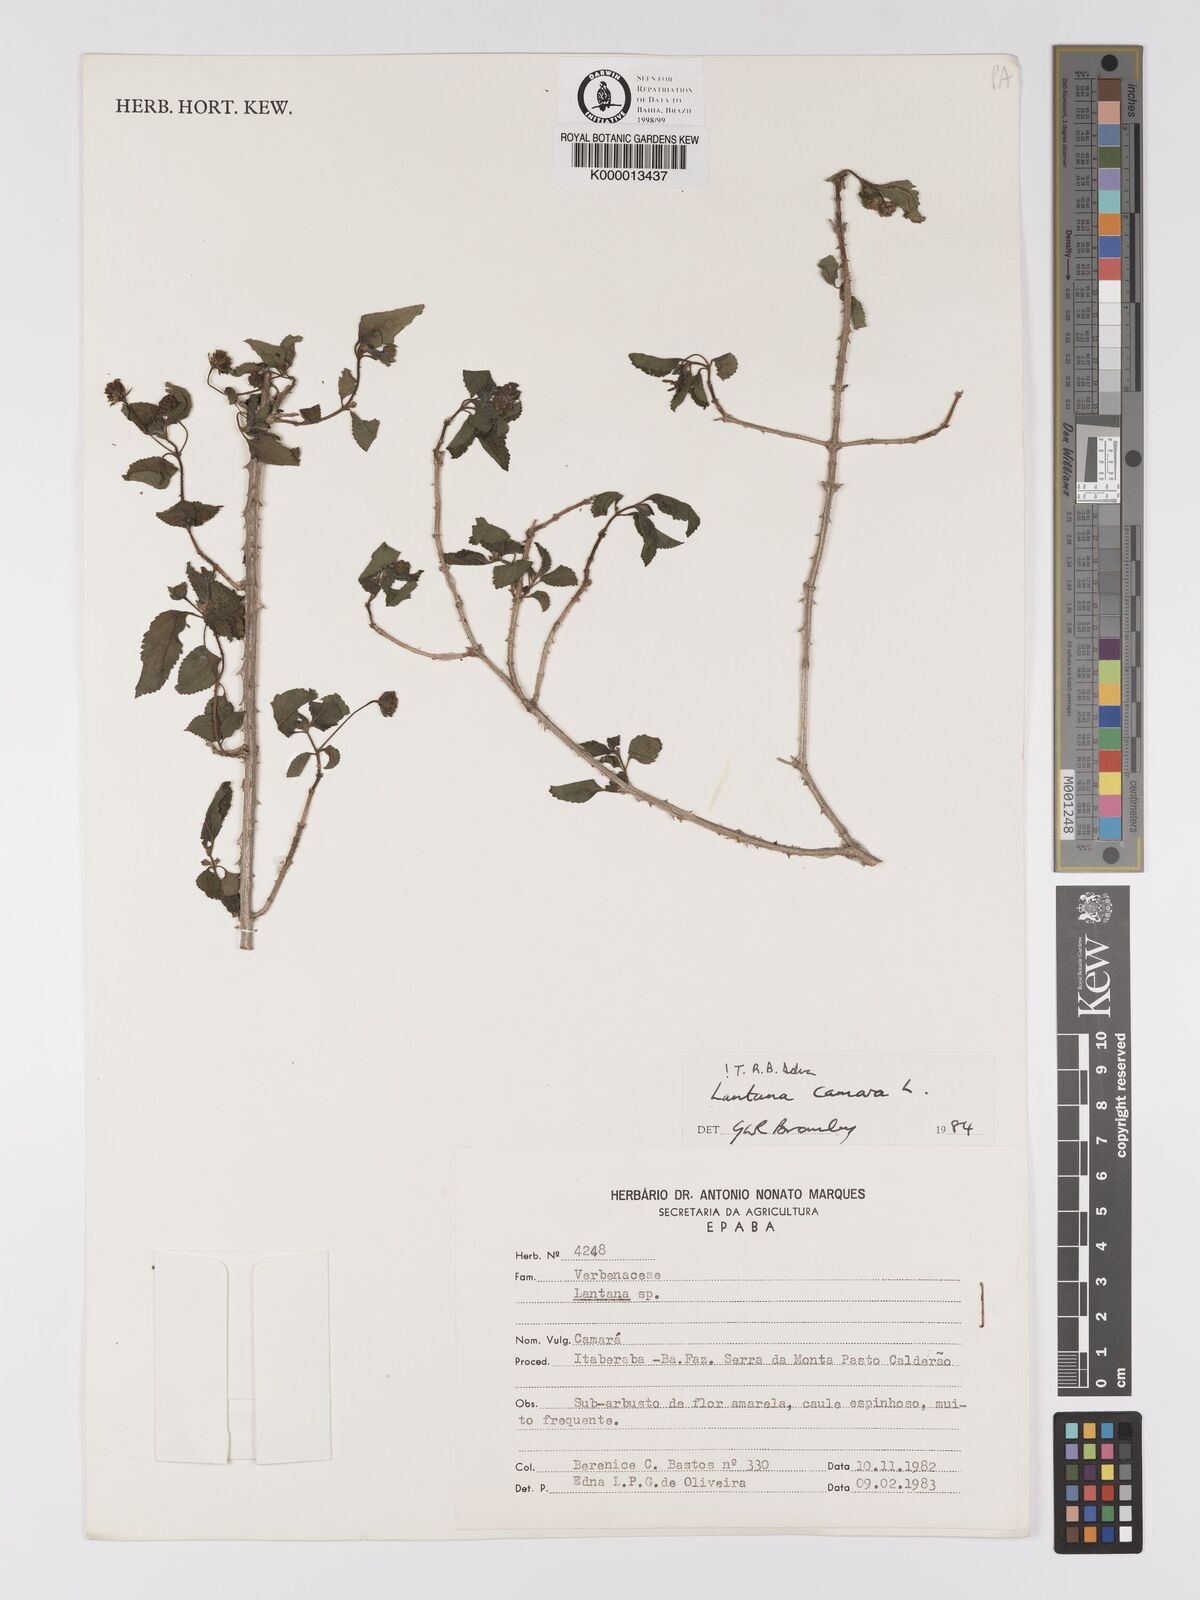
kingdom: Plantae
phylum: Tracheophyta
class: Magnoliopsida
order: Lamiales
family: Verbenaceae
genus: Lantana
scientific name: Lantana camara
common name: Lantana
